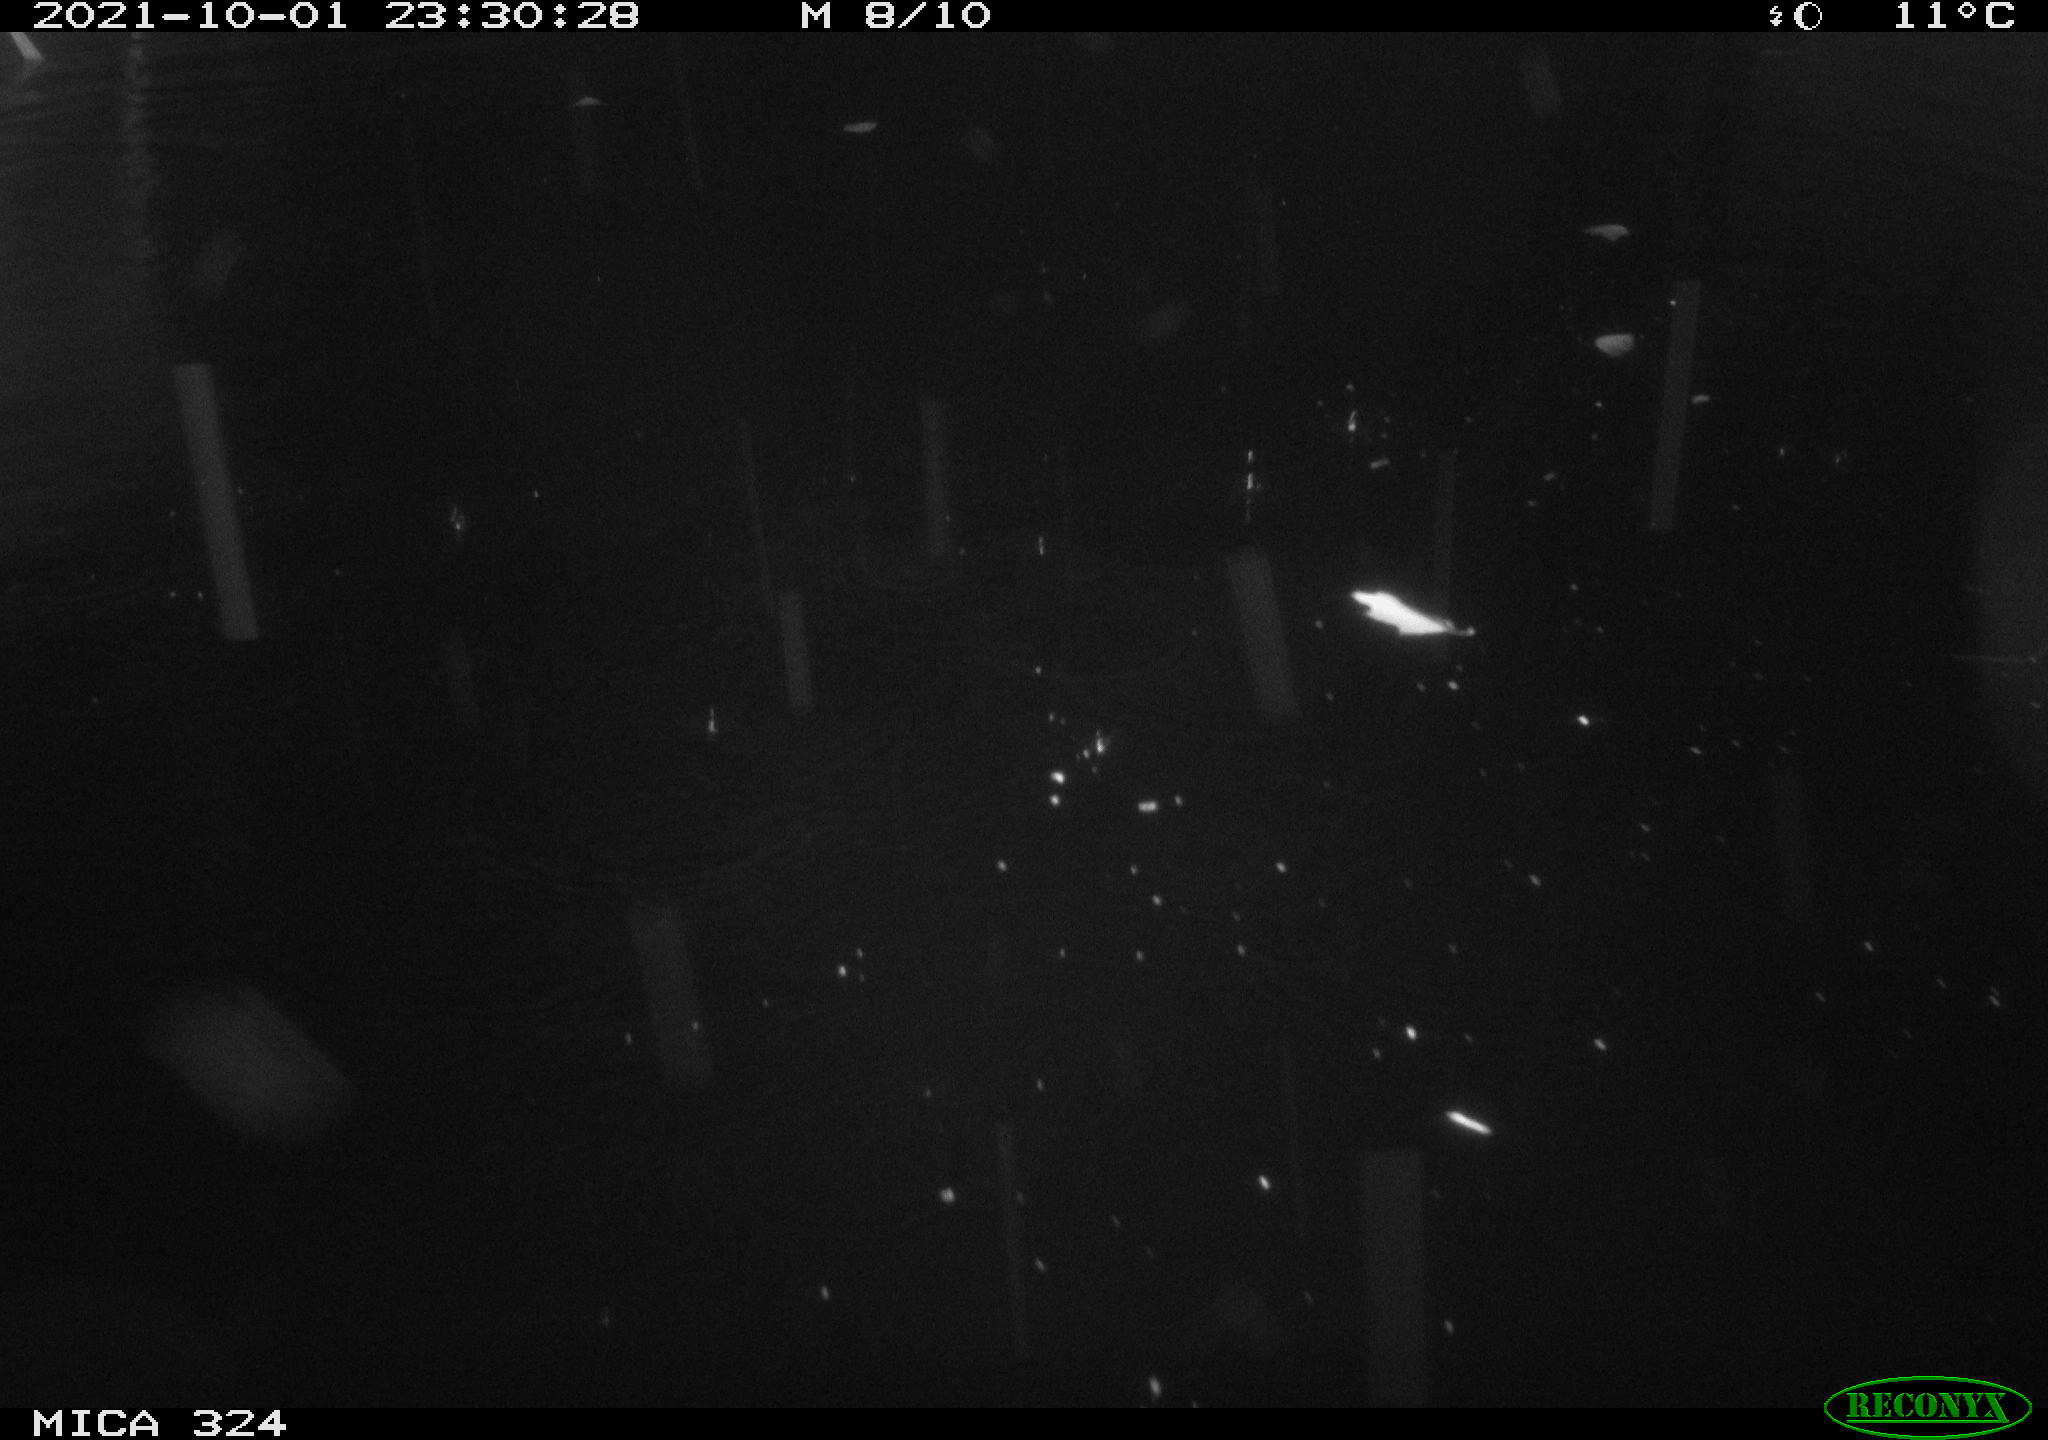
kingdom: Animalia
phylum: Chordata
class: Mammalia
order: Rodentia
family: Cricetidae
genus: Ondatra
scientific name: Ondatra zibethicus
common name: Muskrat
